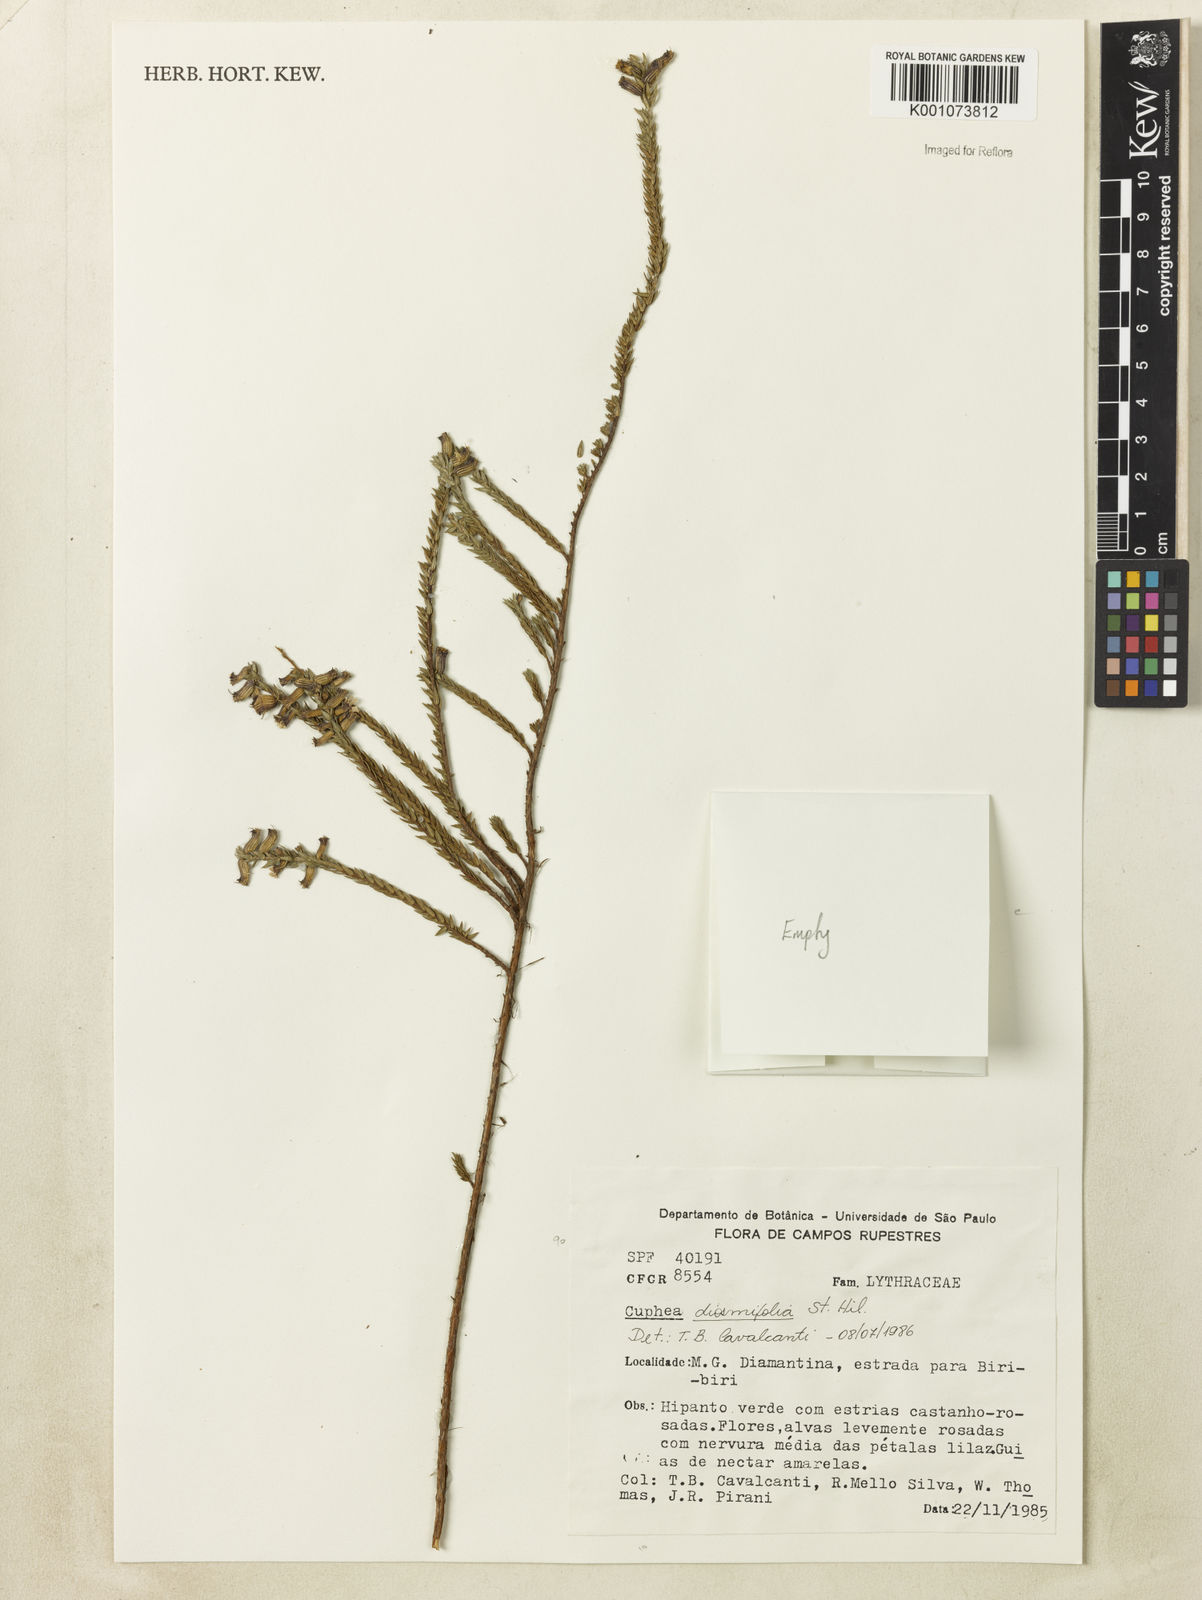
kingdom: Plantae
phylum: Tracheophyta
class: Magnoliopsida
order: Myrtales
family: Lythraceae
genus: Cuphea
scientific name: Cuphea diosmifolia
